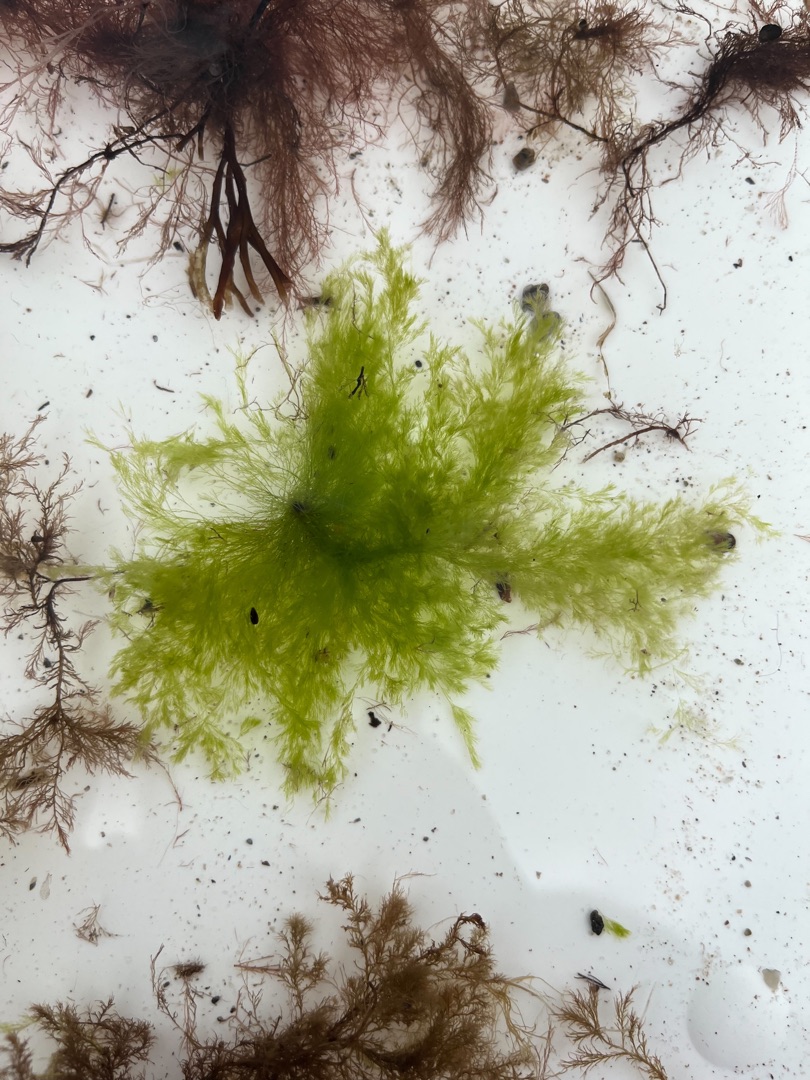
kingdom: Plantae
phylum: Chlorophyta
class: Ulvophyceae
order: Cladophorales
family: Cladophoraceae
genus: Cladophora
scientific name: Cladophora
